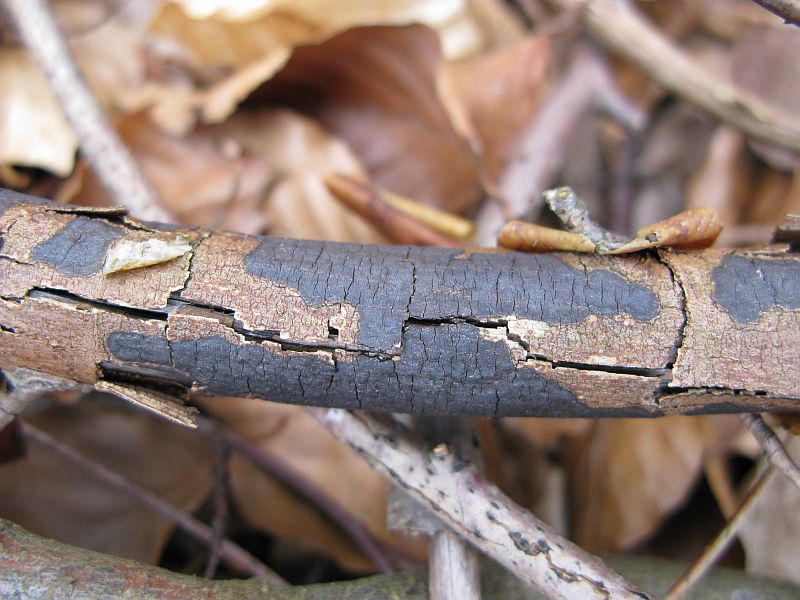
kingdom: Fungi
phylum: Ascomycota
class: Sordariomycetes
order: Xylariales
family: Diatrypaceae
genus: Diatrype
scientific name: Diatrype decorticata
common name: barksprænger-kulskorpe
